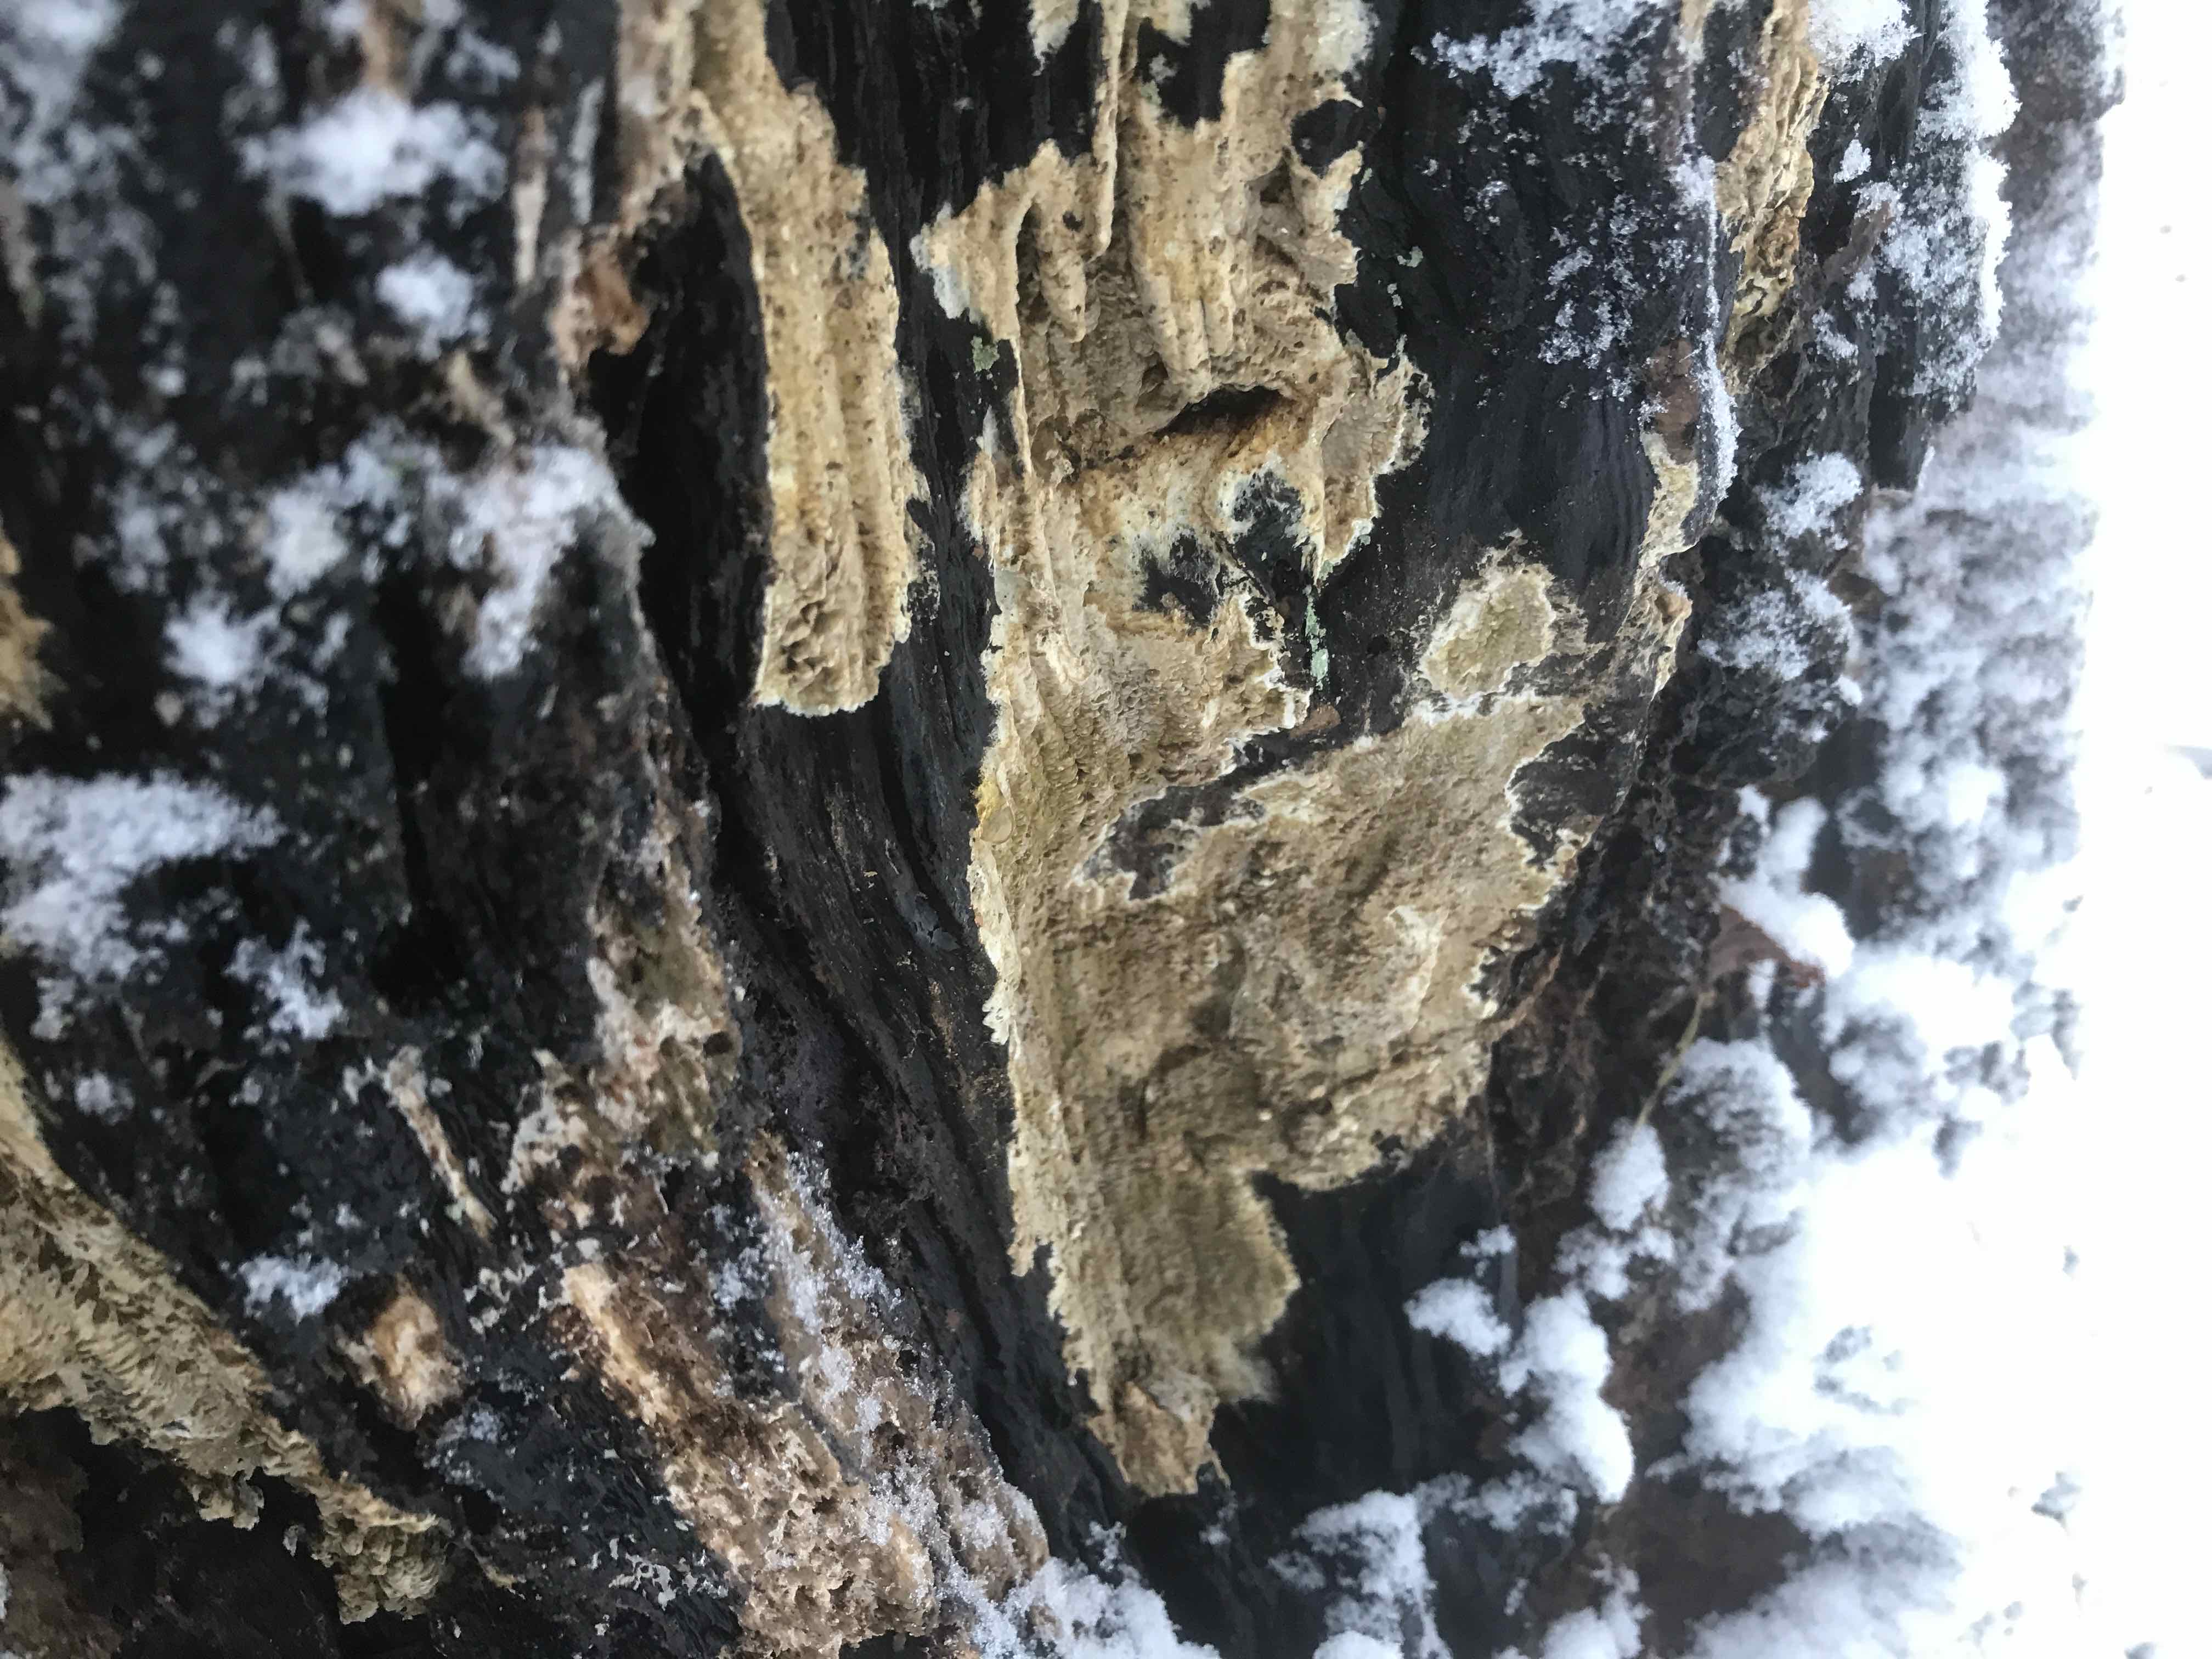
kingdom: Fungi
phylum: Basidiomycota
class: Agaricomycetes
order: Boletales
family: Coniophoraceae
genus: Coniophora
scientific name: Coniophora puteana
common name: gul tømmersvamp
